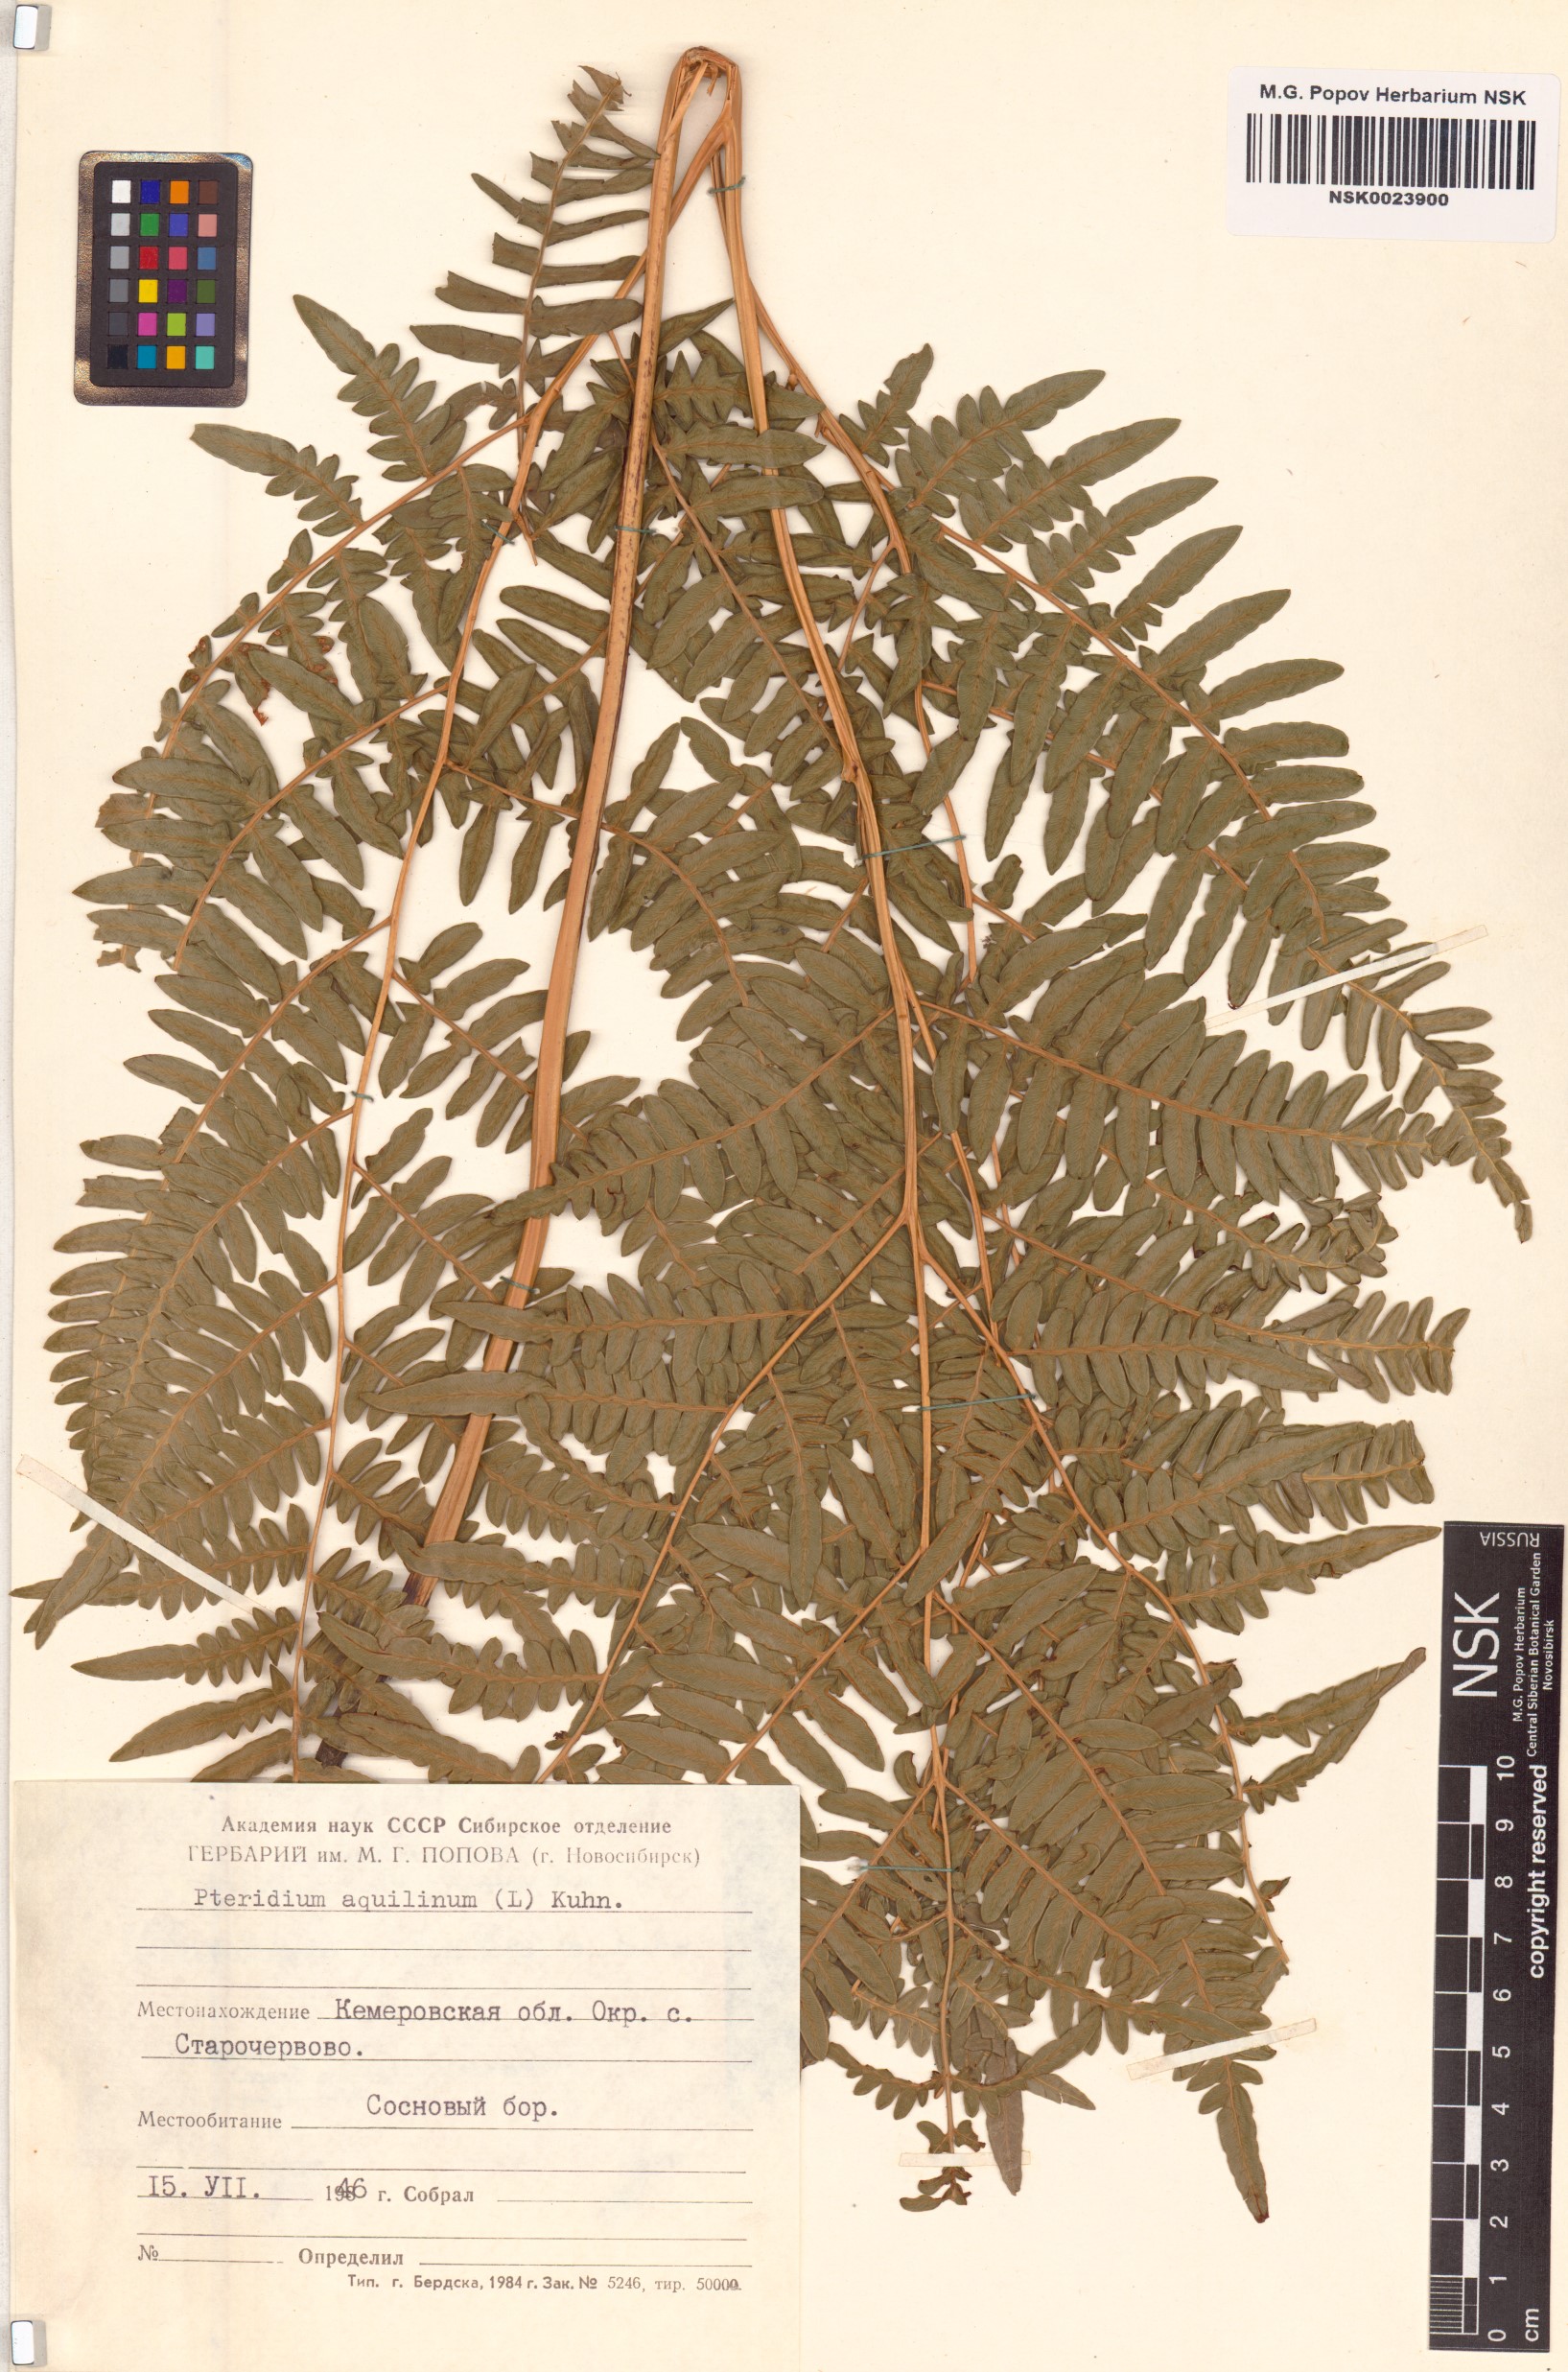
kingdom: Plantae
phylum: Tracheophyta
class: Polypodiopsida
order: Polypodiales
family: Dennstaedtiaceae
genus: Pteridium
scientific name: Pteridium aquilinum
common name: Bracken
